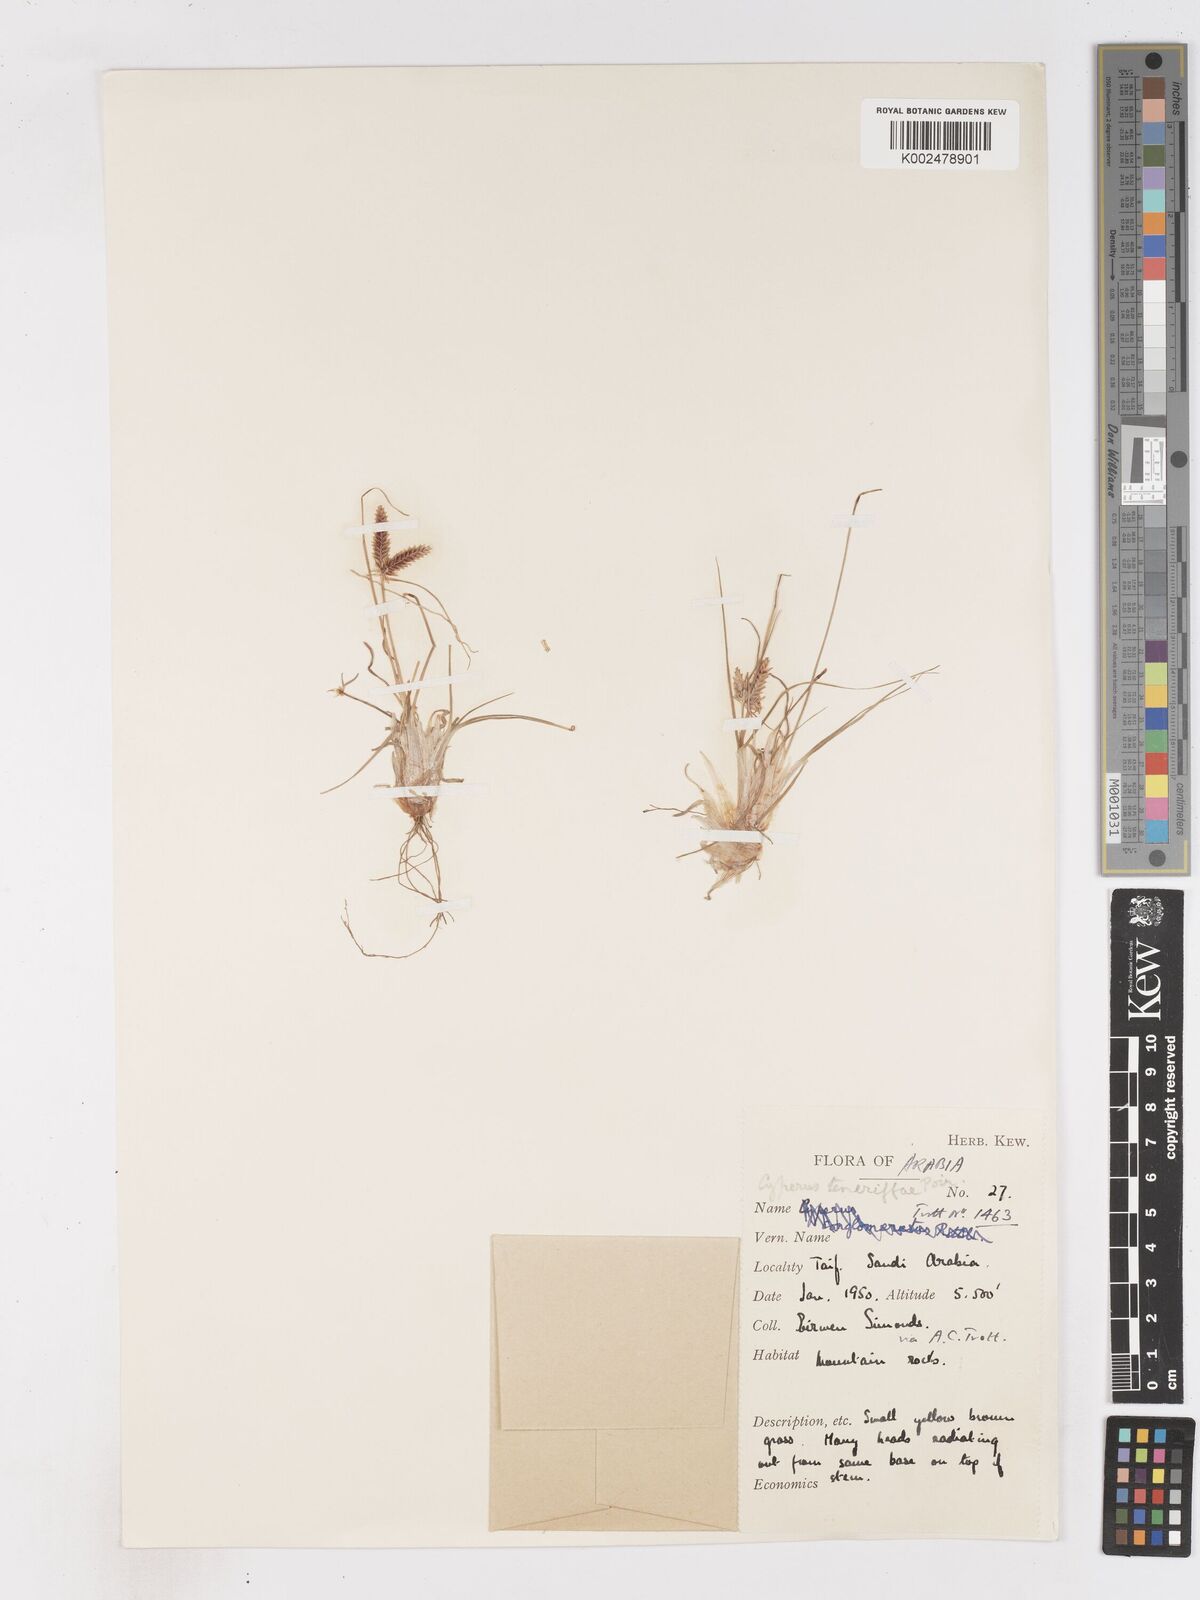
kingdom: Plantae
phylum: Tracheophyta
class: Liliopsida
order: Poales
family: Cyperaceae
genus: Cyperus
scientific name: Cyperus rubicundus
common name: Coco-grass
